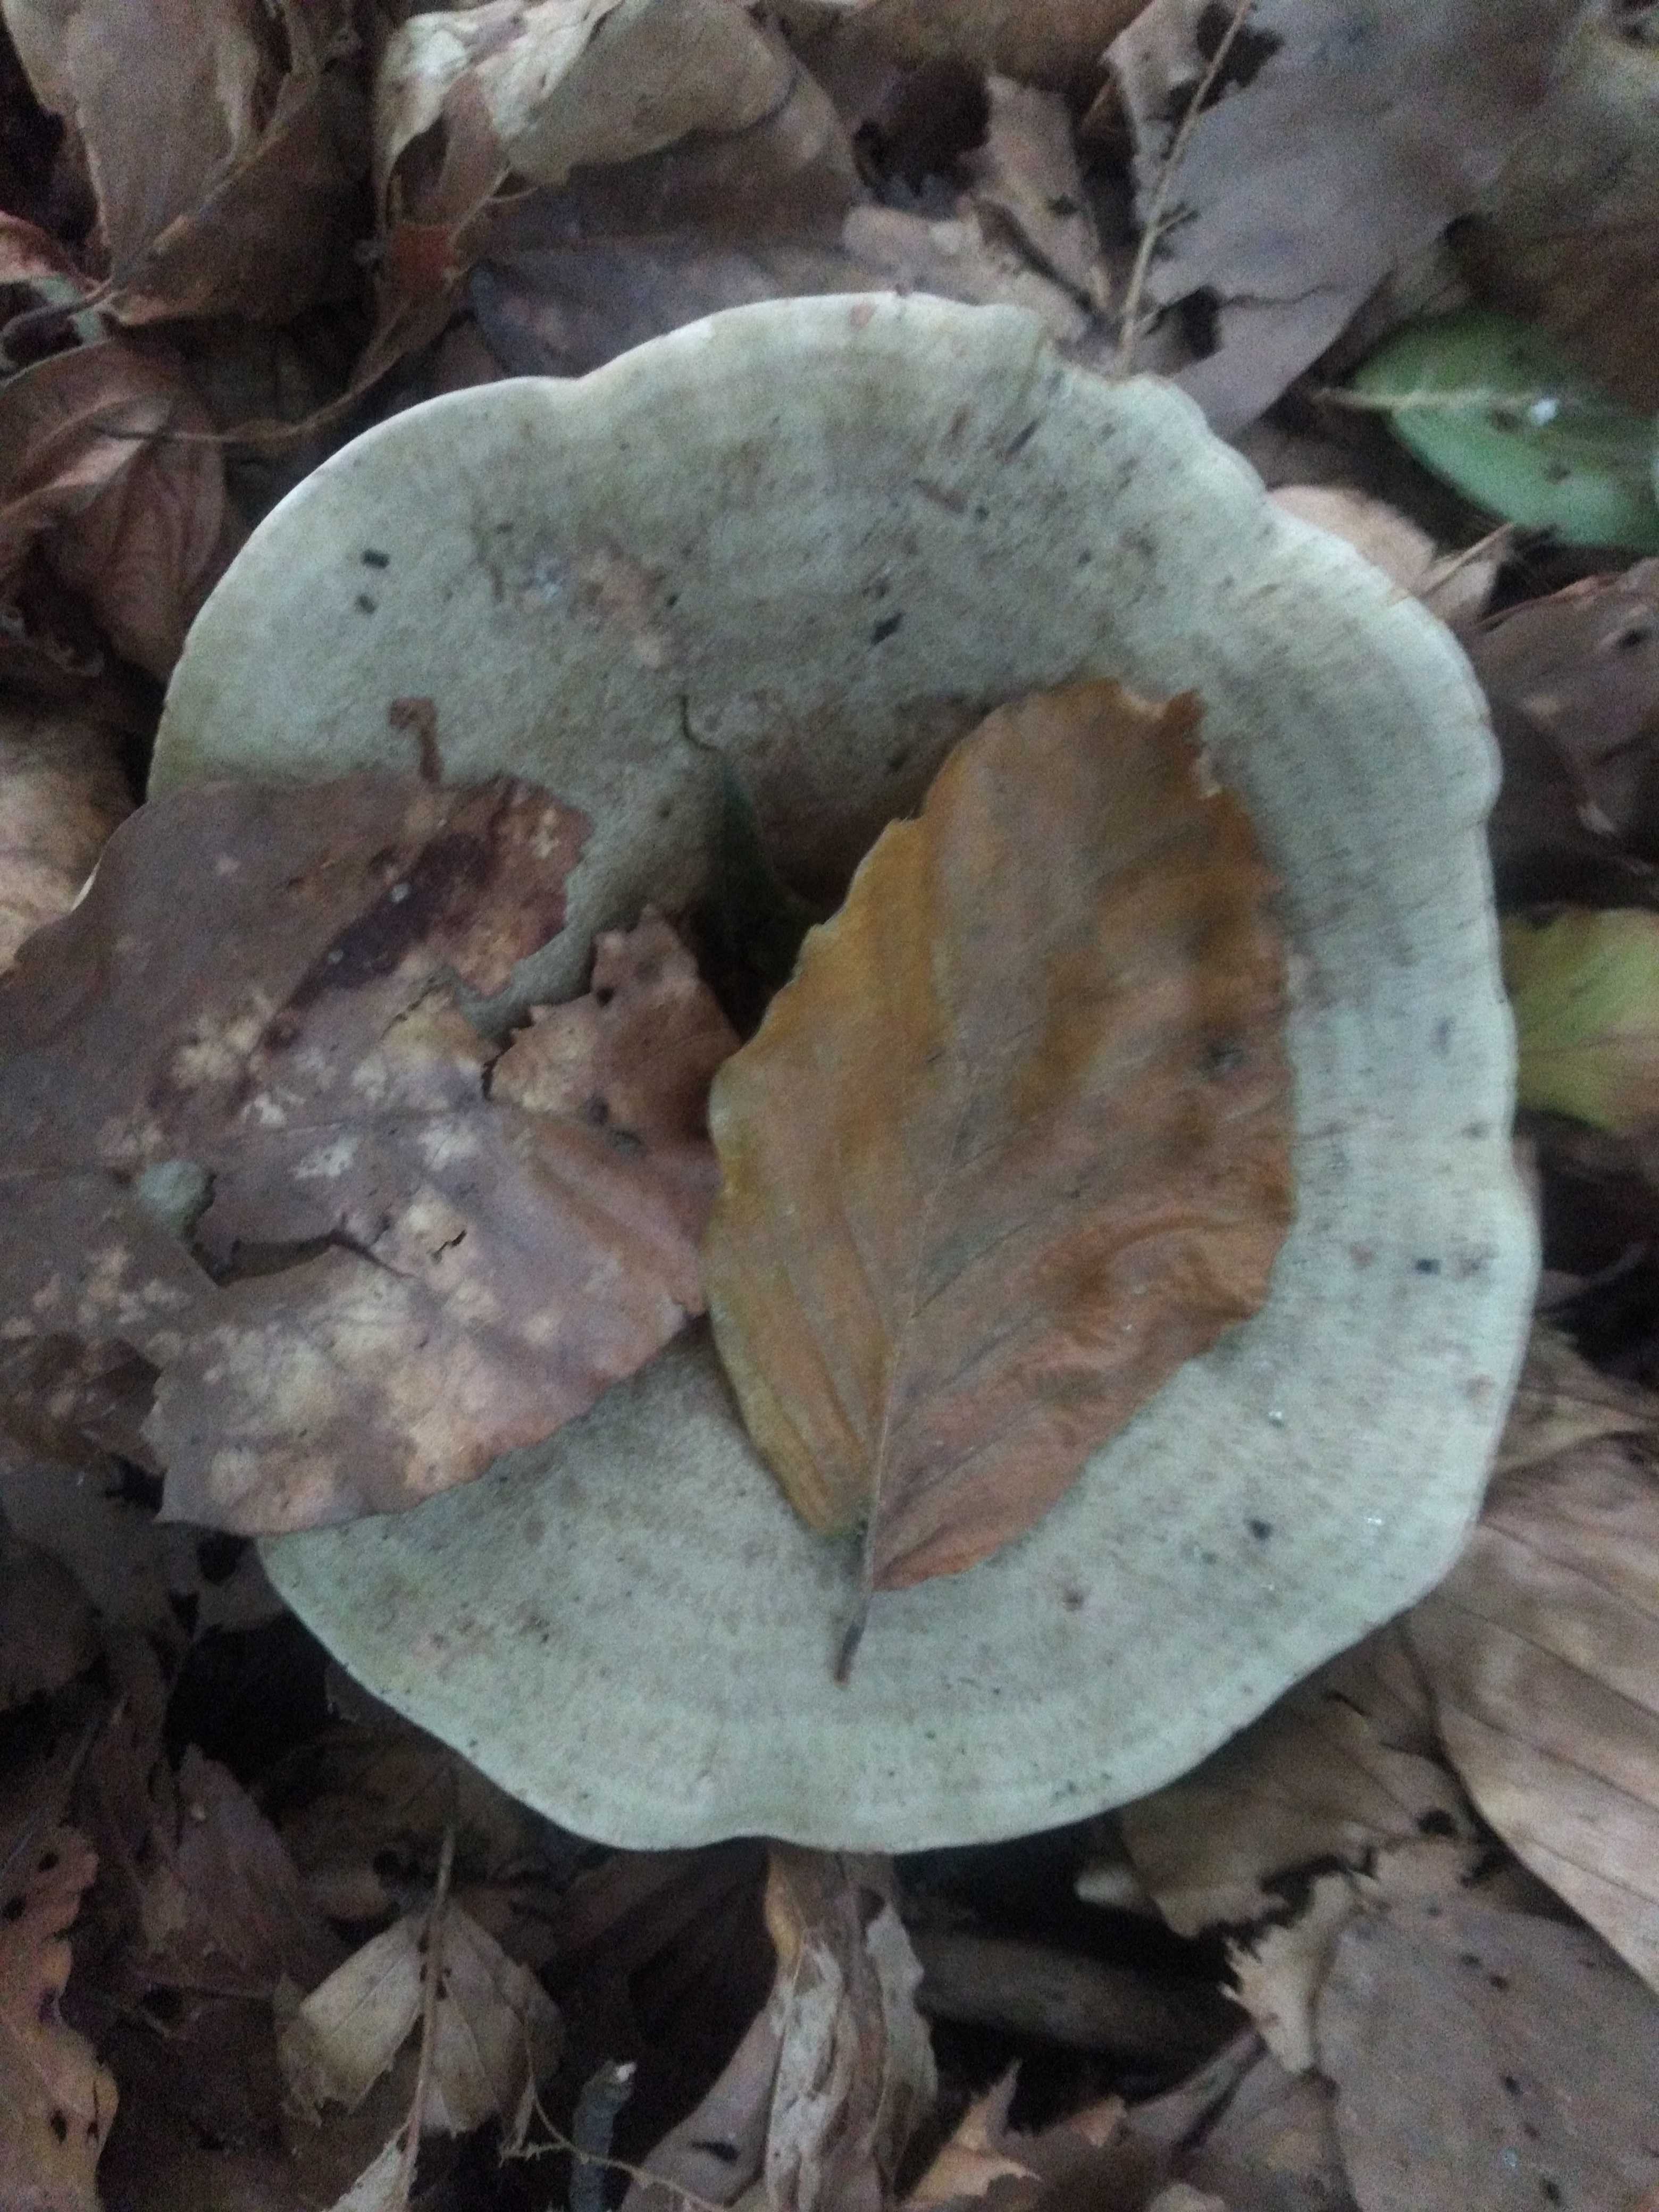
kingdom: Fungi
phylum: Basidiomycota
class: Agaricomycetes
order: Russulales
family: Russulaceae
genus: Lactarius
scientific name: Lactarius
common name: mælkehat
